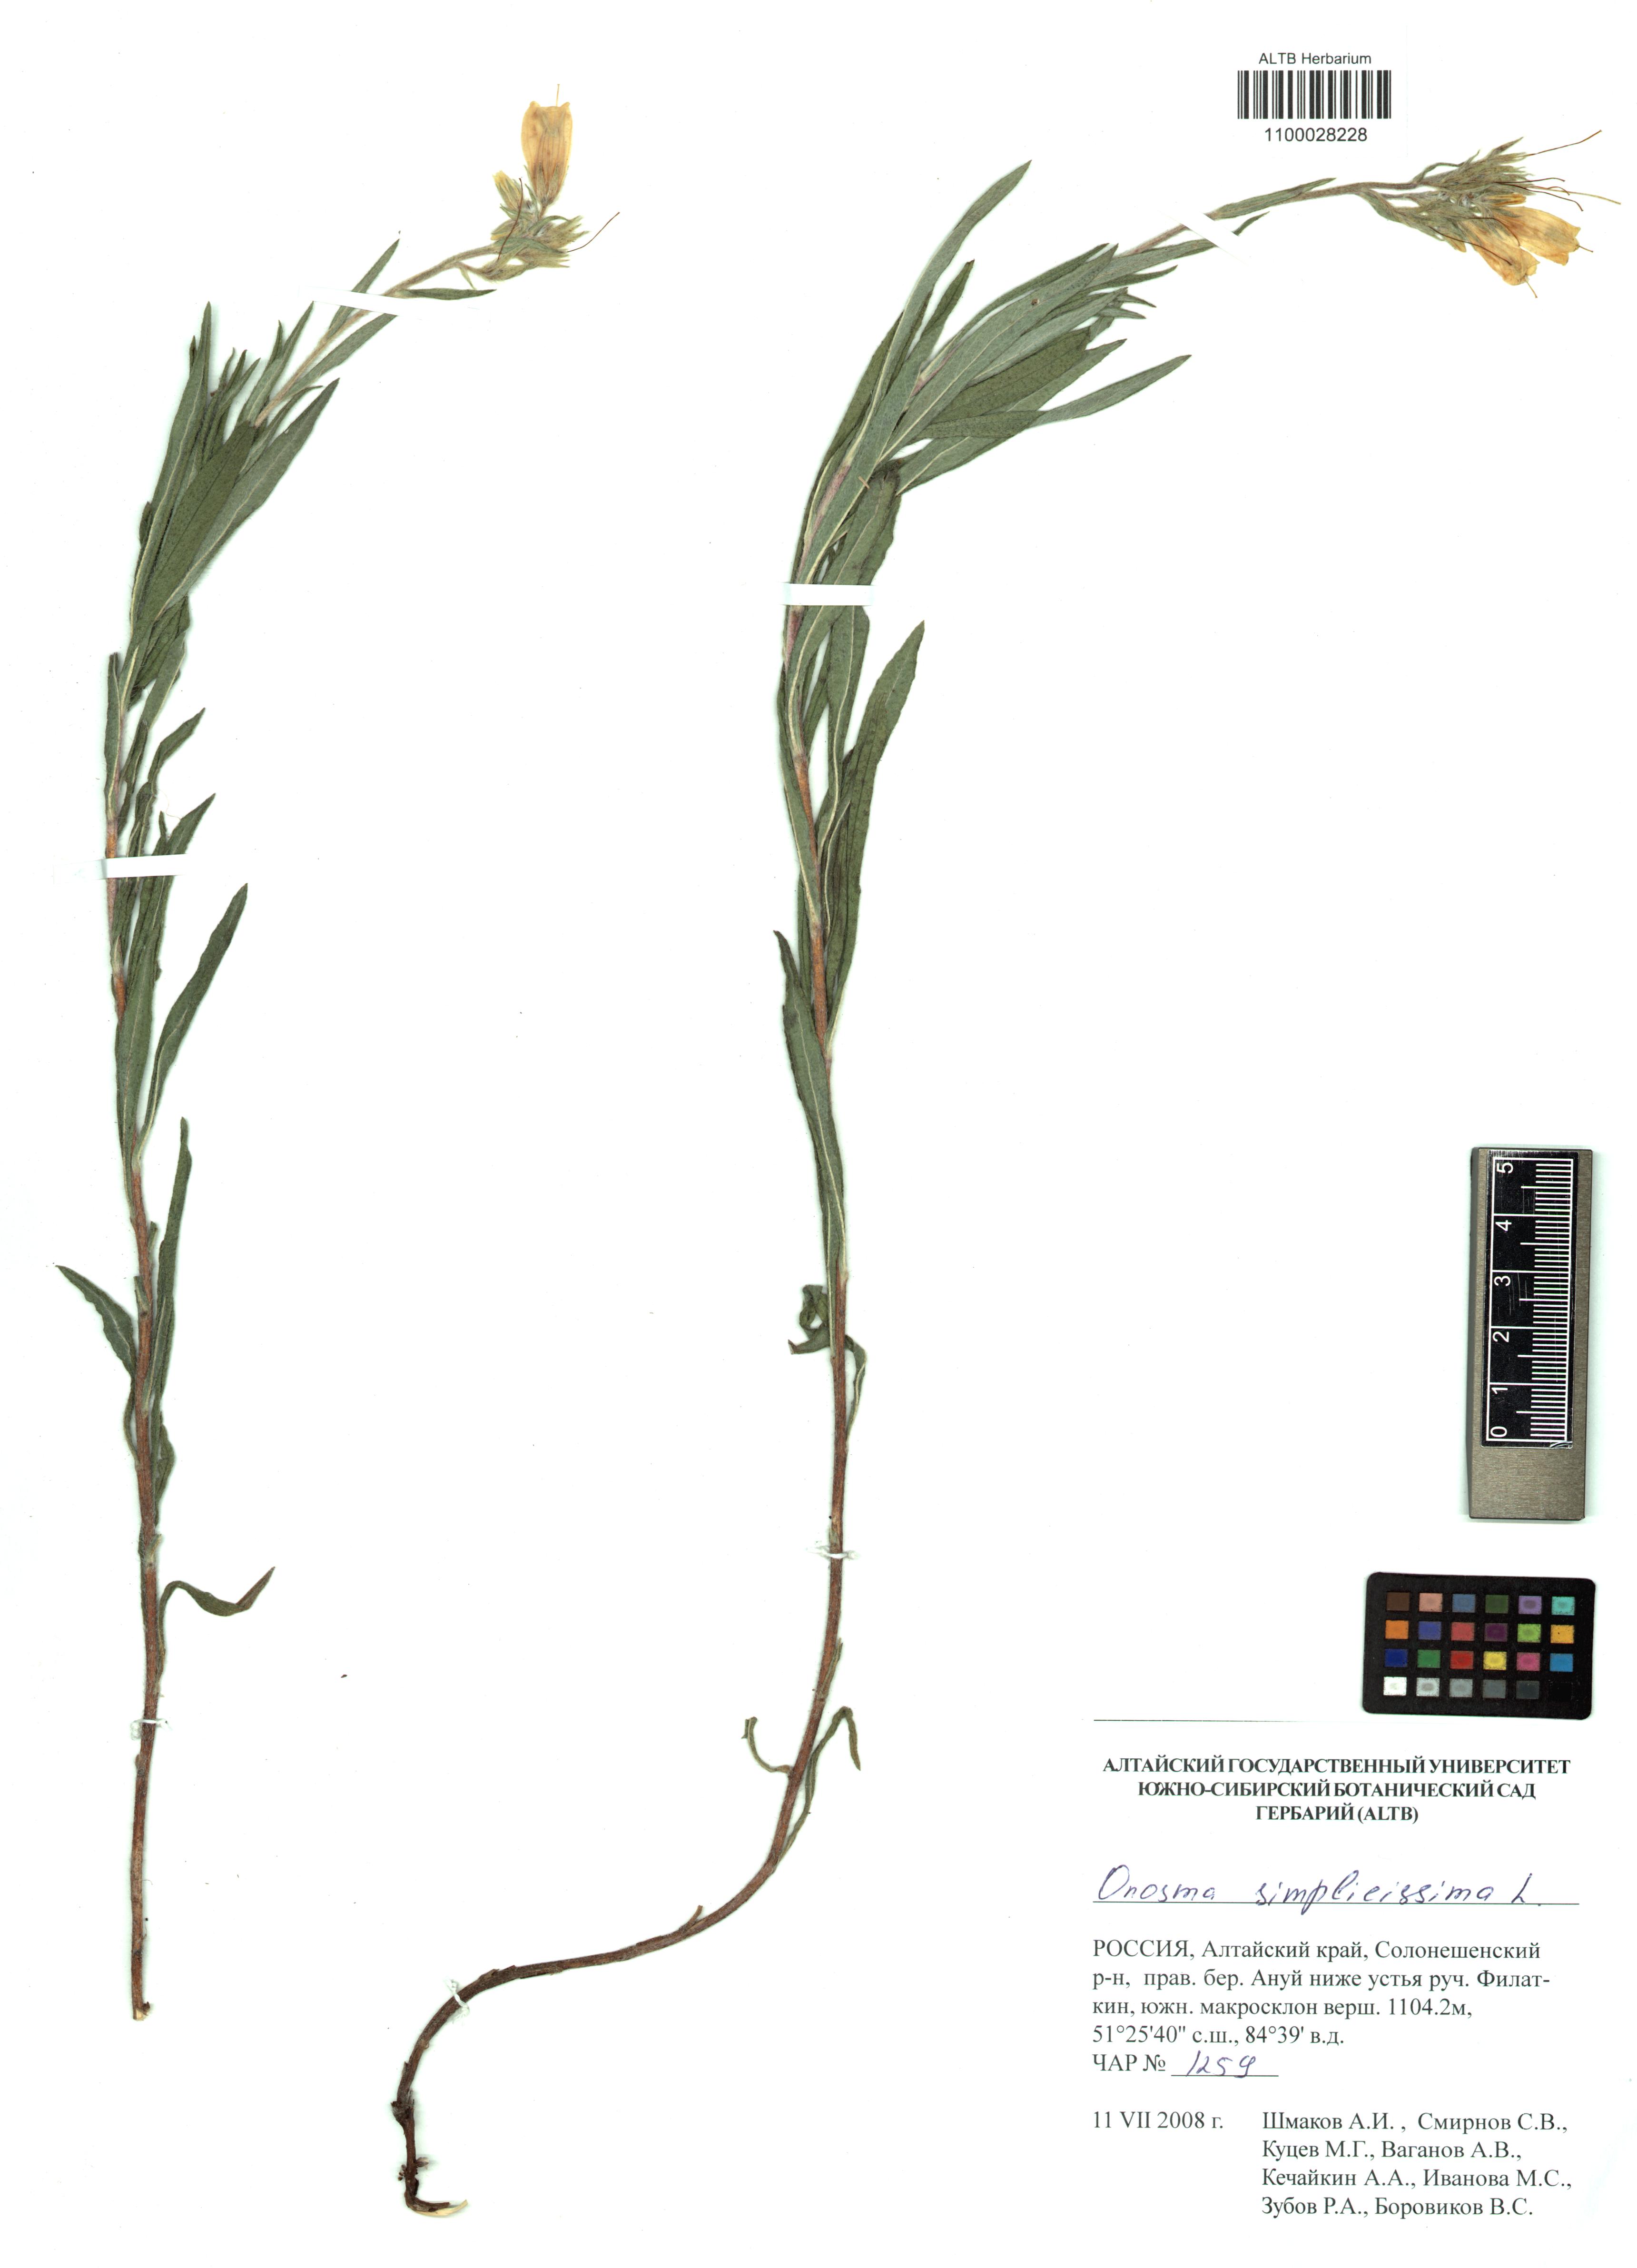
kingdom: Plantae
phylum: Tracheophyta
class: Magnoliopsida
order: Boraginales
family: Boraginaceae
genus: Onosma
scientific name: Onosma simplicissima
